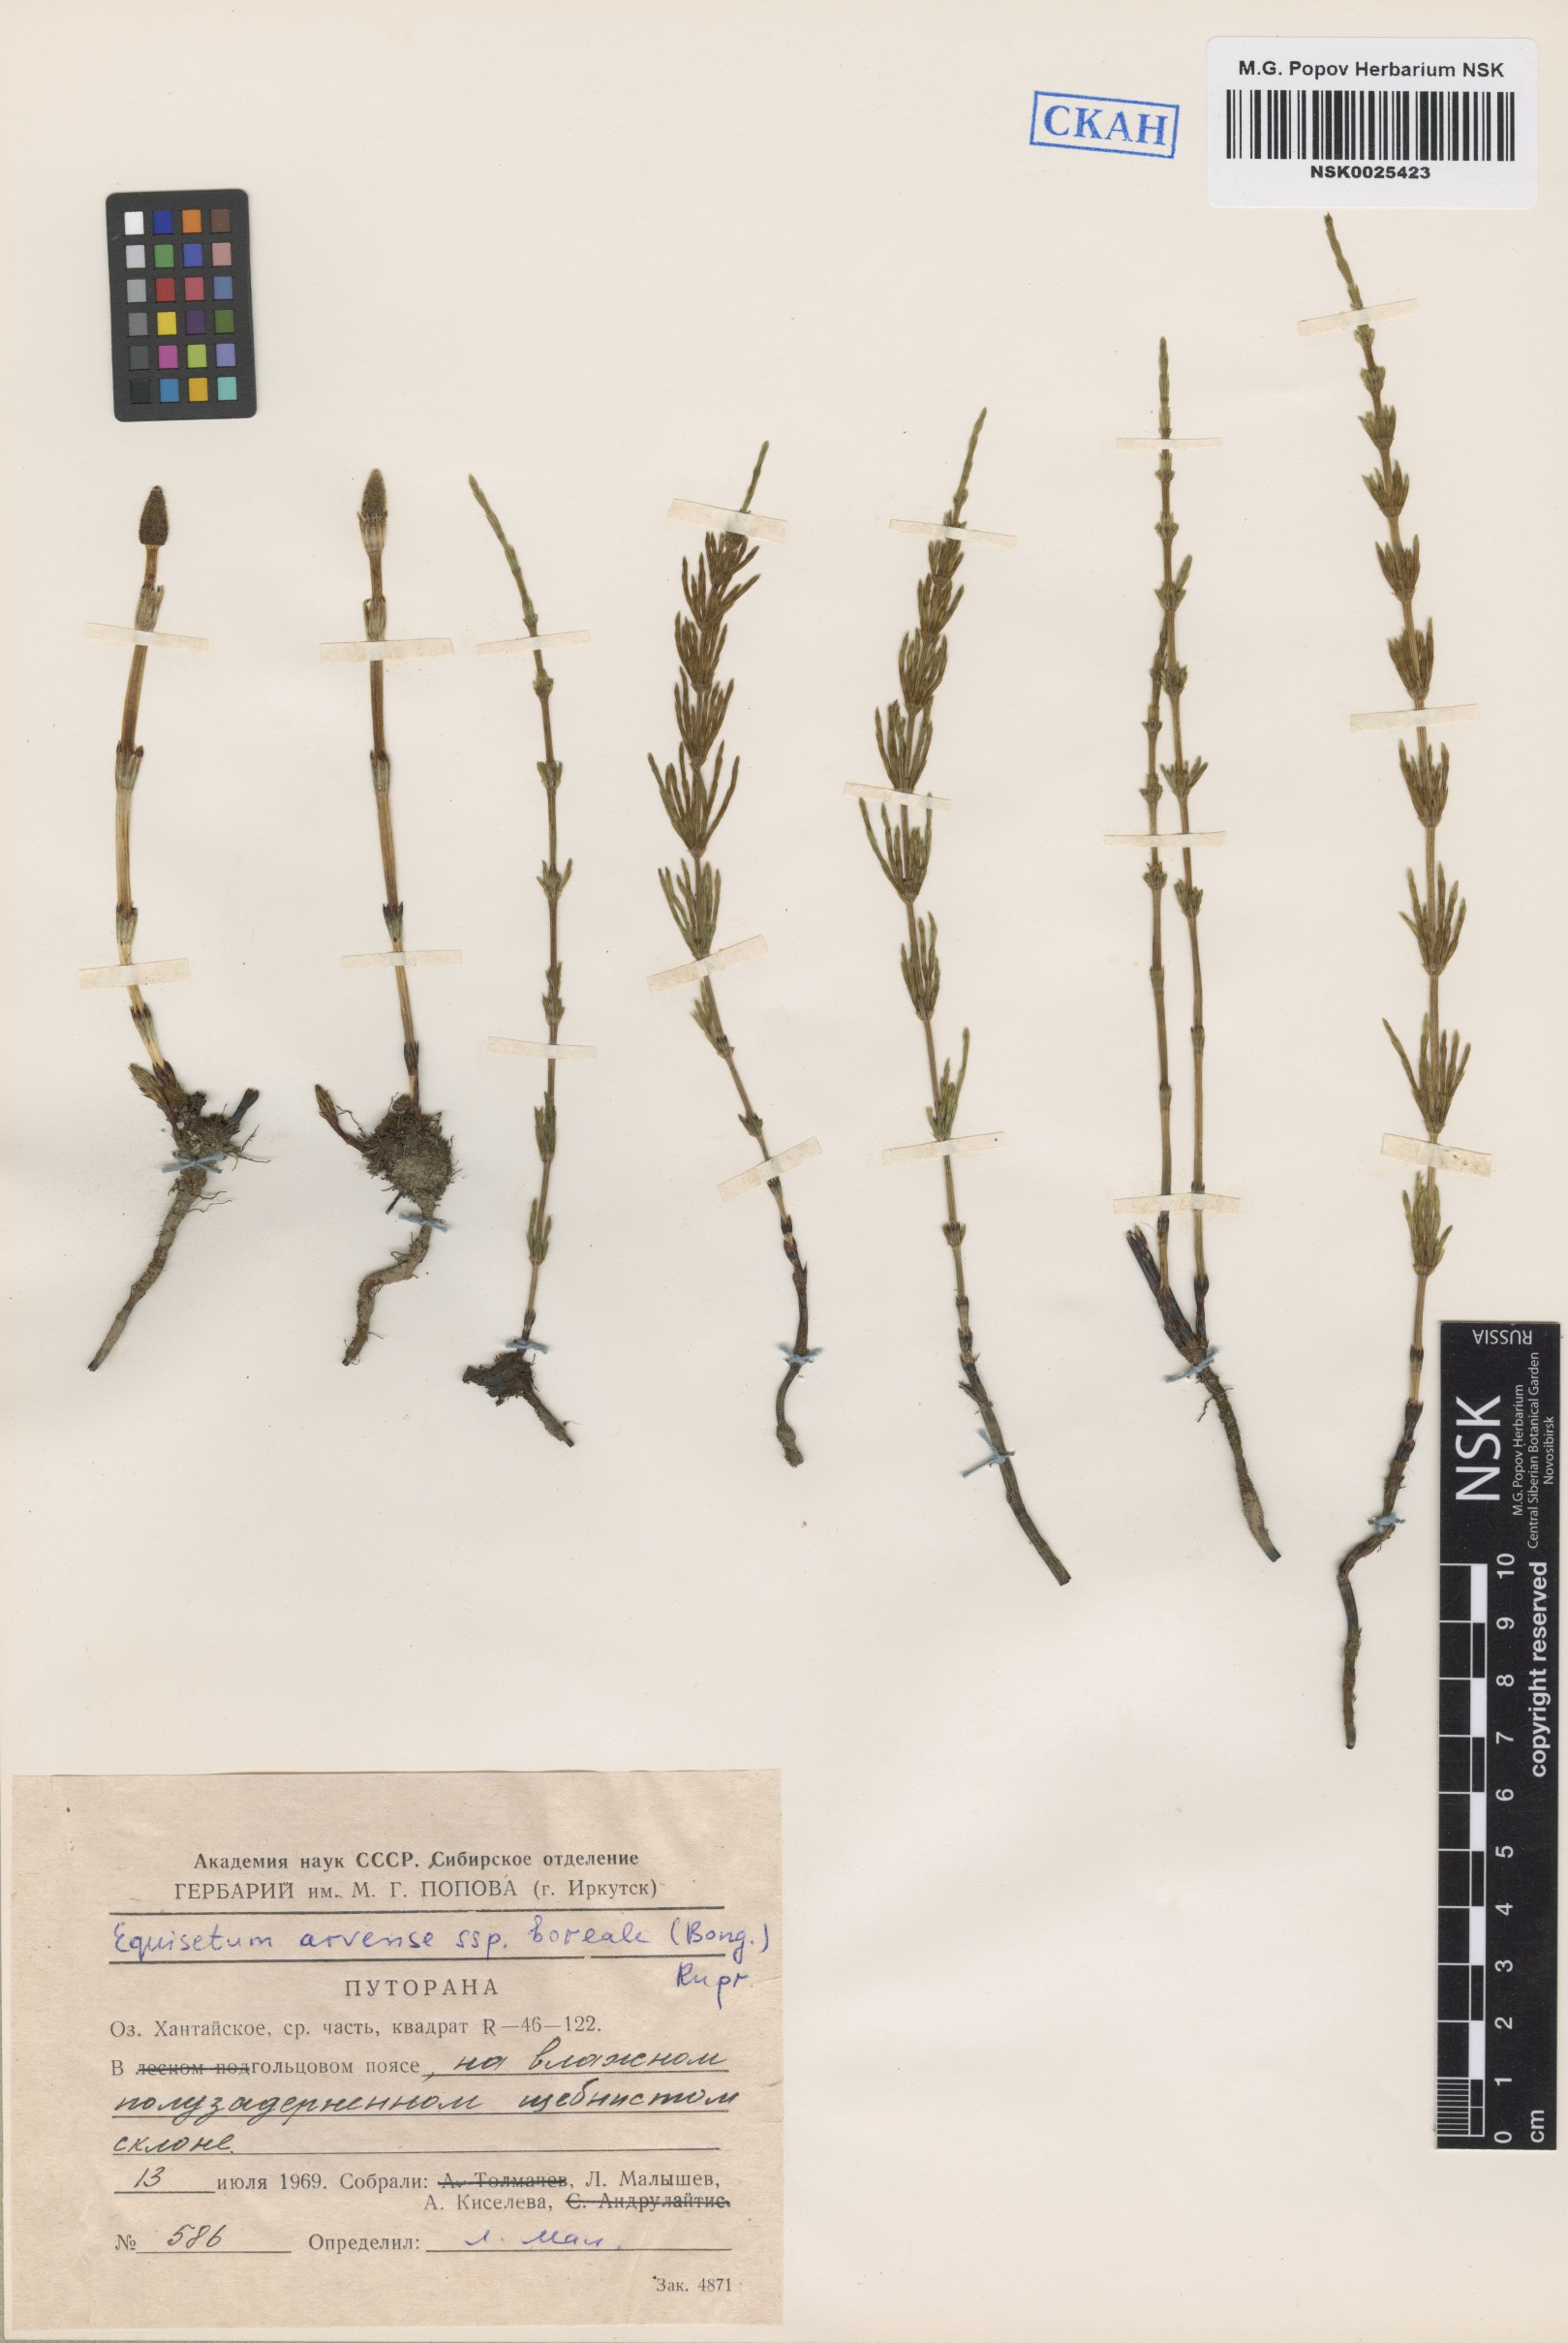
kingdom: Plantae
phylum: Tracheophyta
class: Polypodiopsida
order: Equisetales
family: Equisetaceae
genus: Equisetum
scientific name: Equisetum arvense
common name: Field horsetail
